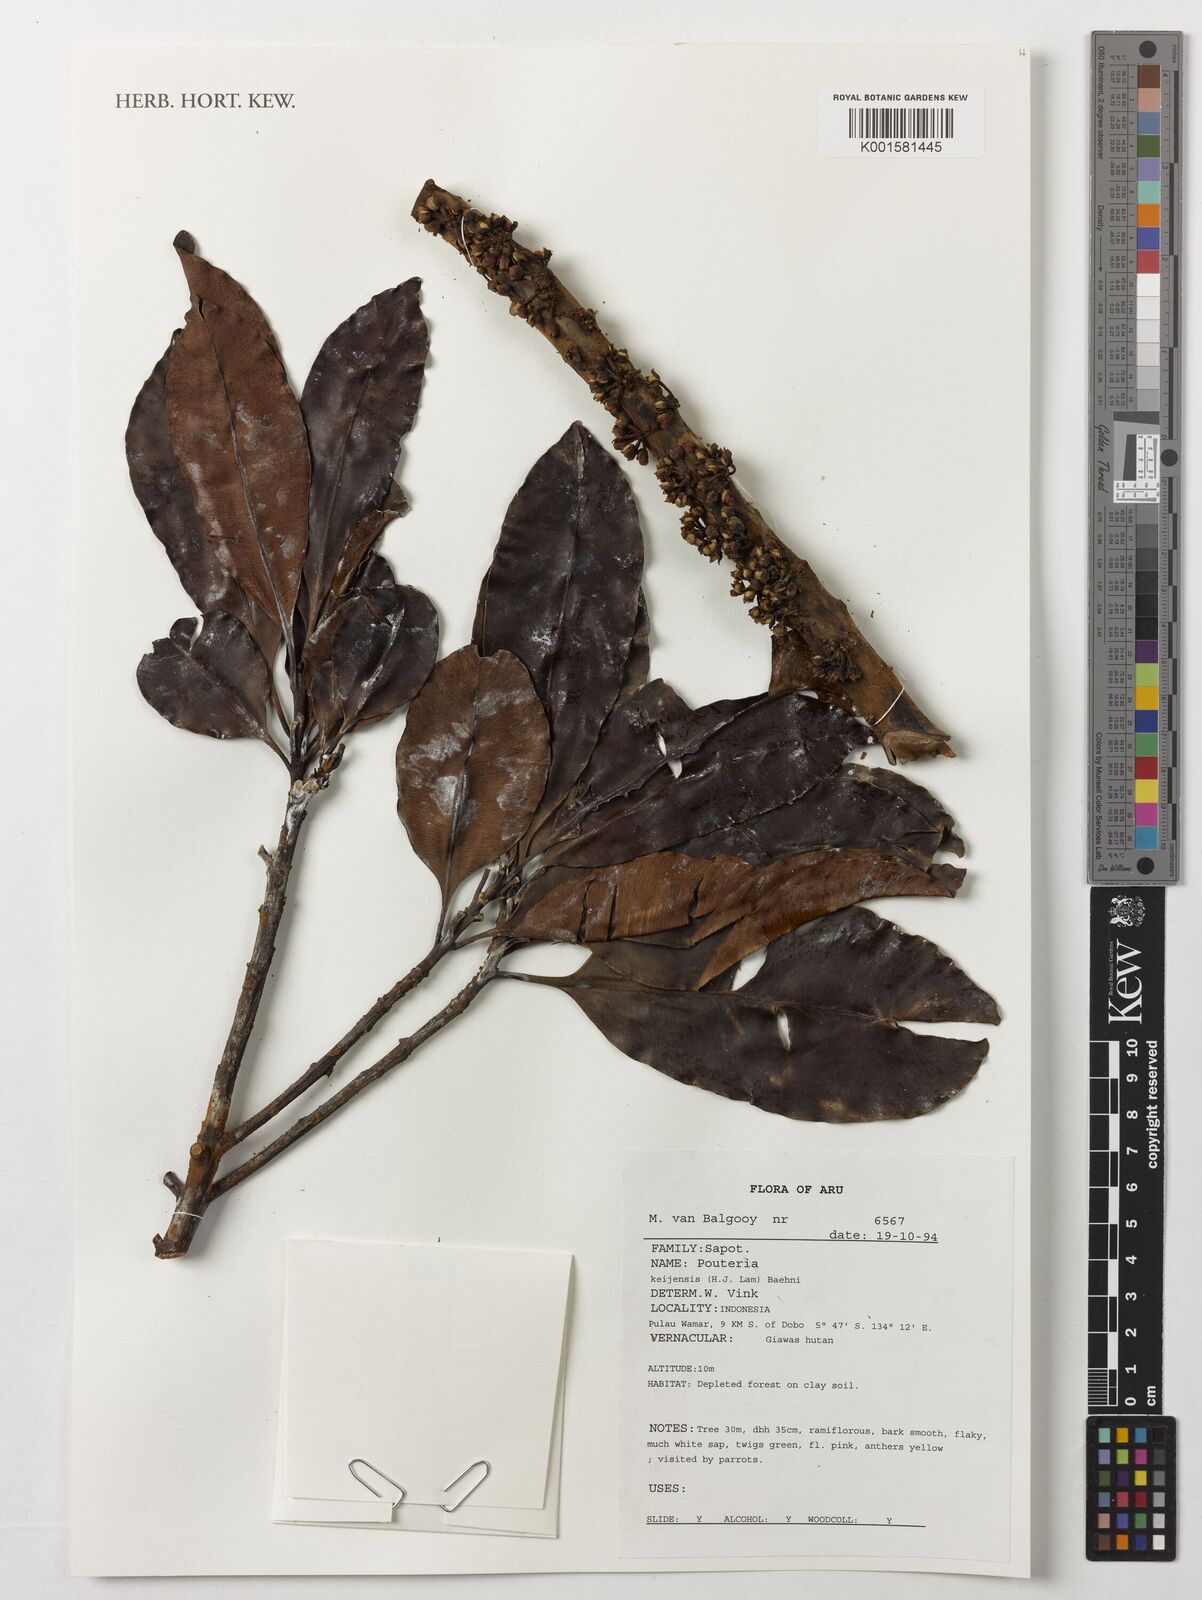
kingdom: Plantae
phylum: Tracheophyta
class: Magnoliopsida
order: Ericales
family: Sapotaceae
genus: Pouteria
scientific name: Pouteria
